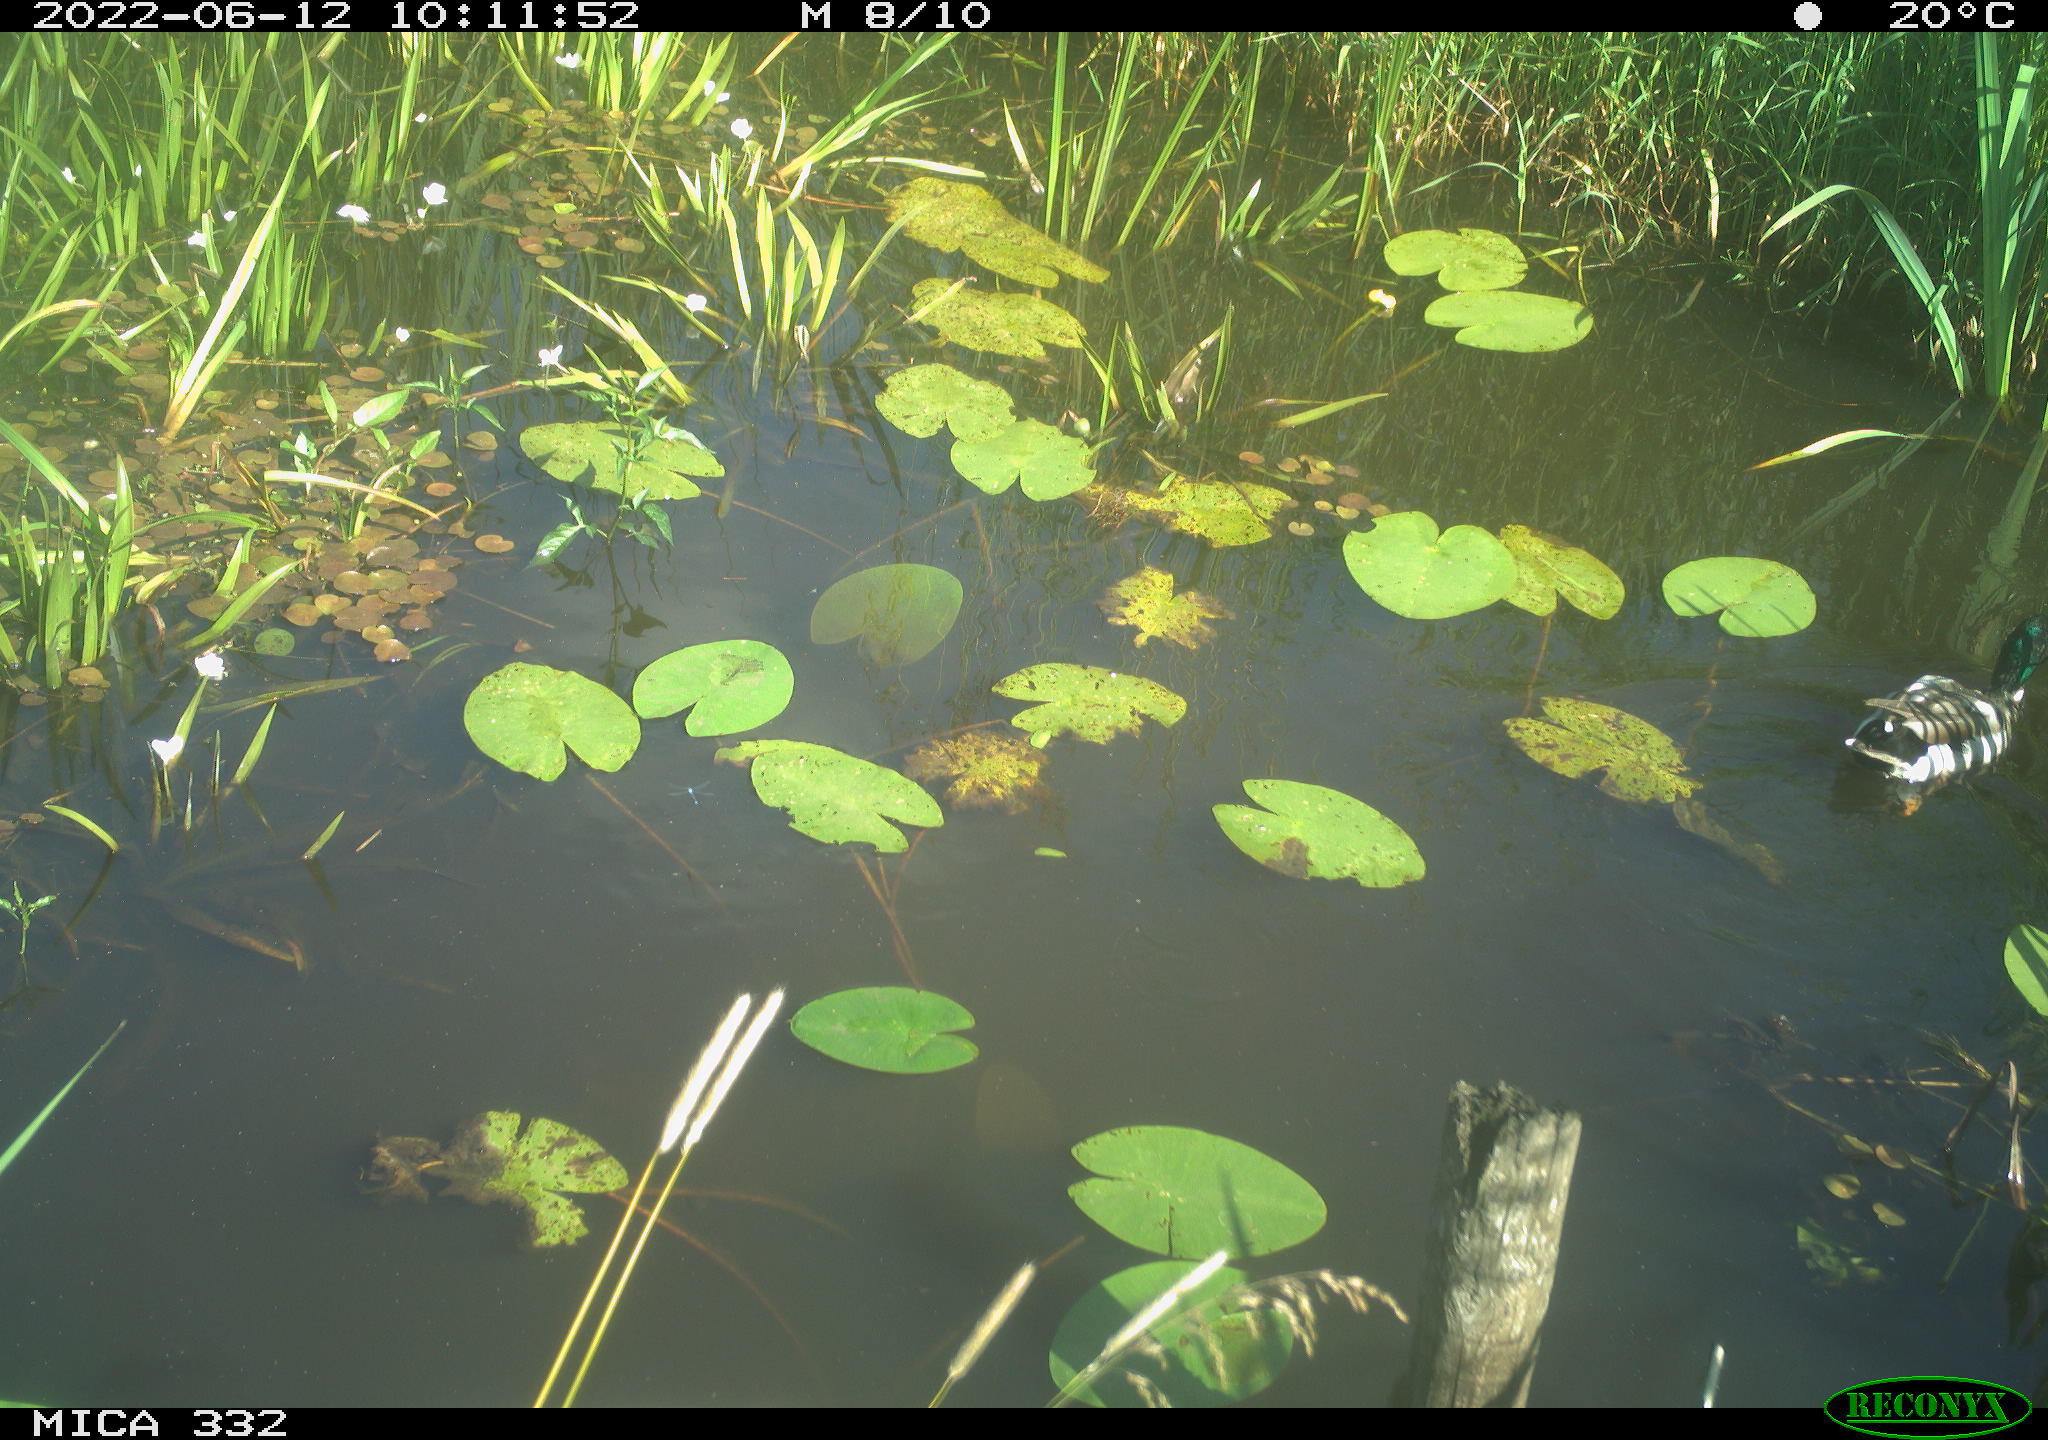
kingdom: Animalia
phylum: Chordata
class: Aves
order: Anseriformes
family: Anatidae
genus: Anas
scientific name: Anas platyrhynchos
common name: Mallard
